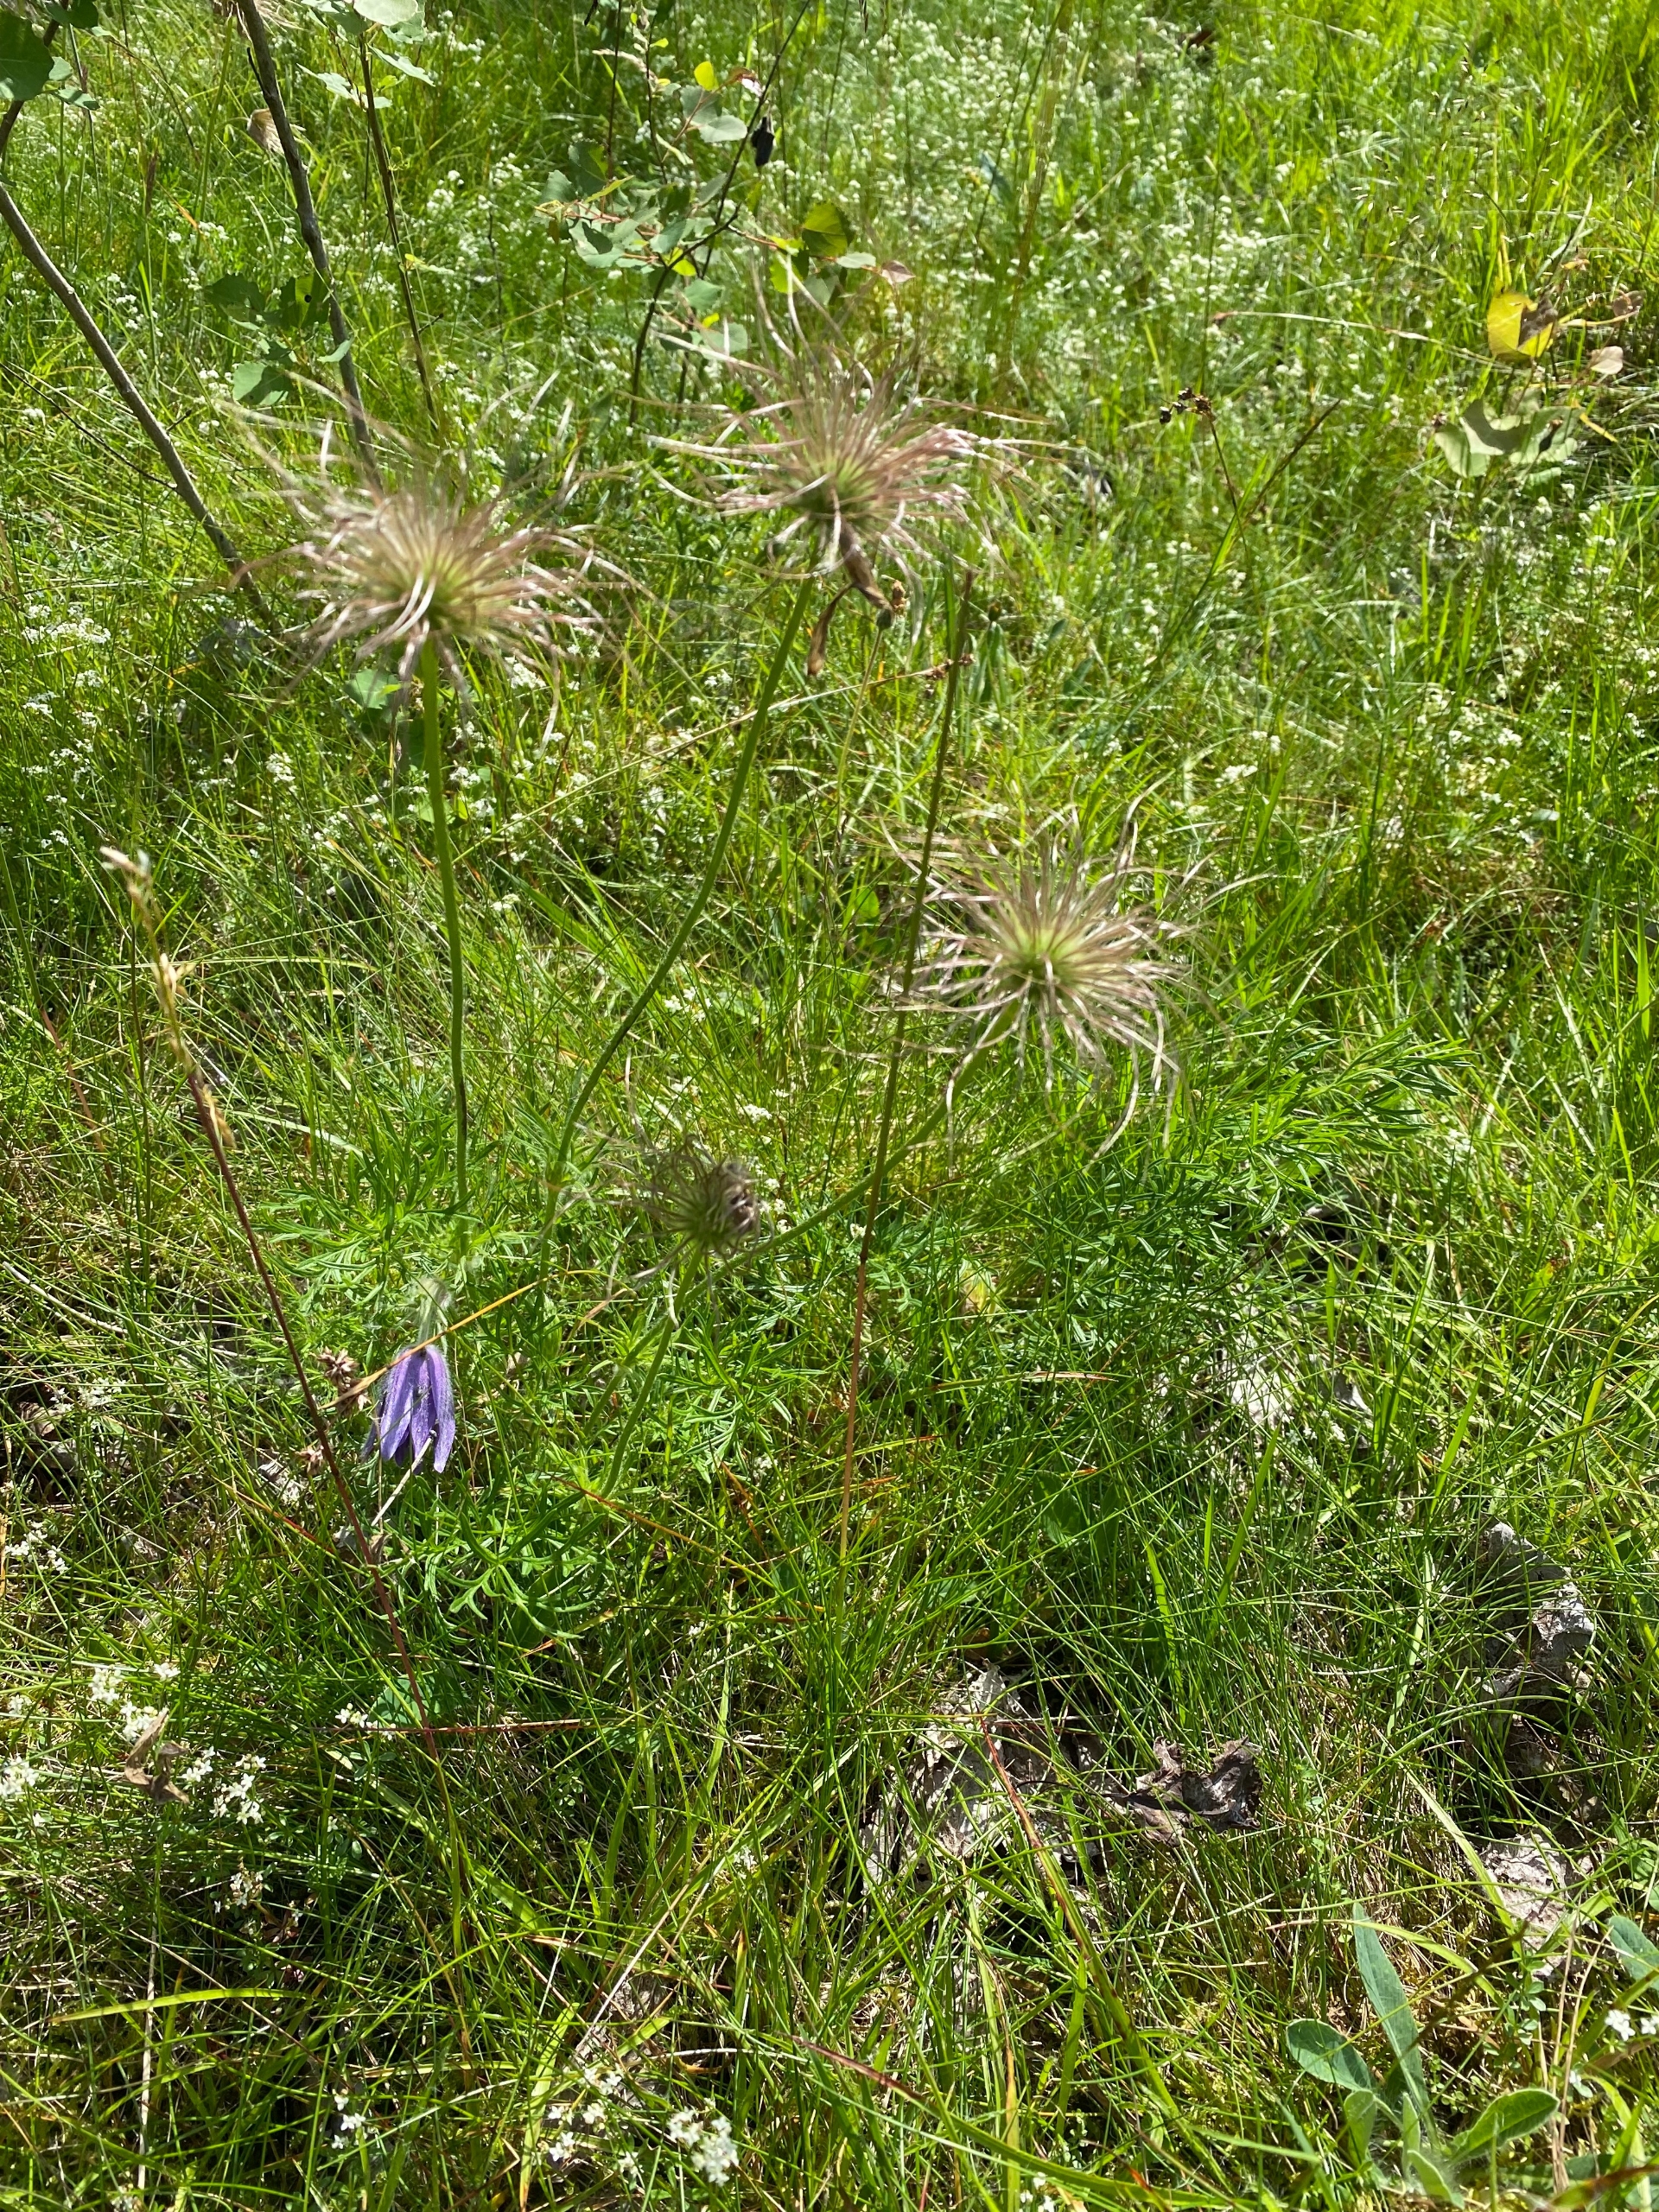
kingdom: Plantae
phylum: Tracheophyta
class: Magnoliopsida
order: Ranunculales
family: Ranunculaceae
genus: Pulsatilla
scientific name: Pulsatilla vulgaris
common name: Opret kobjælde
